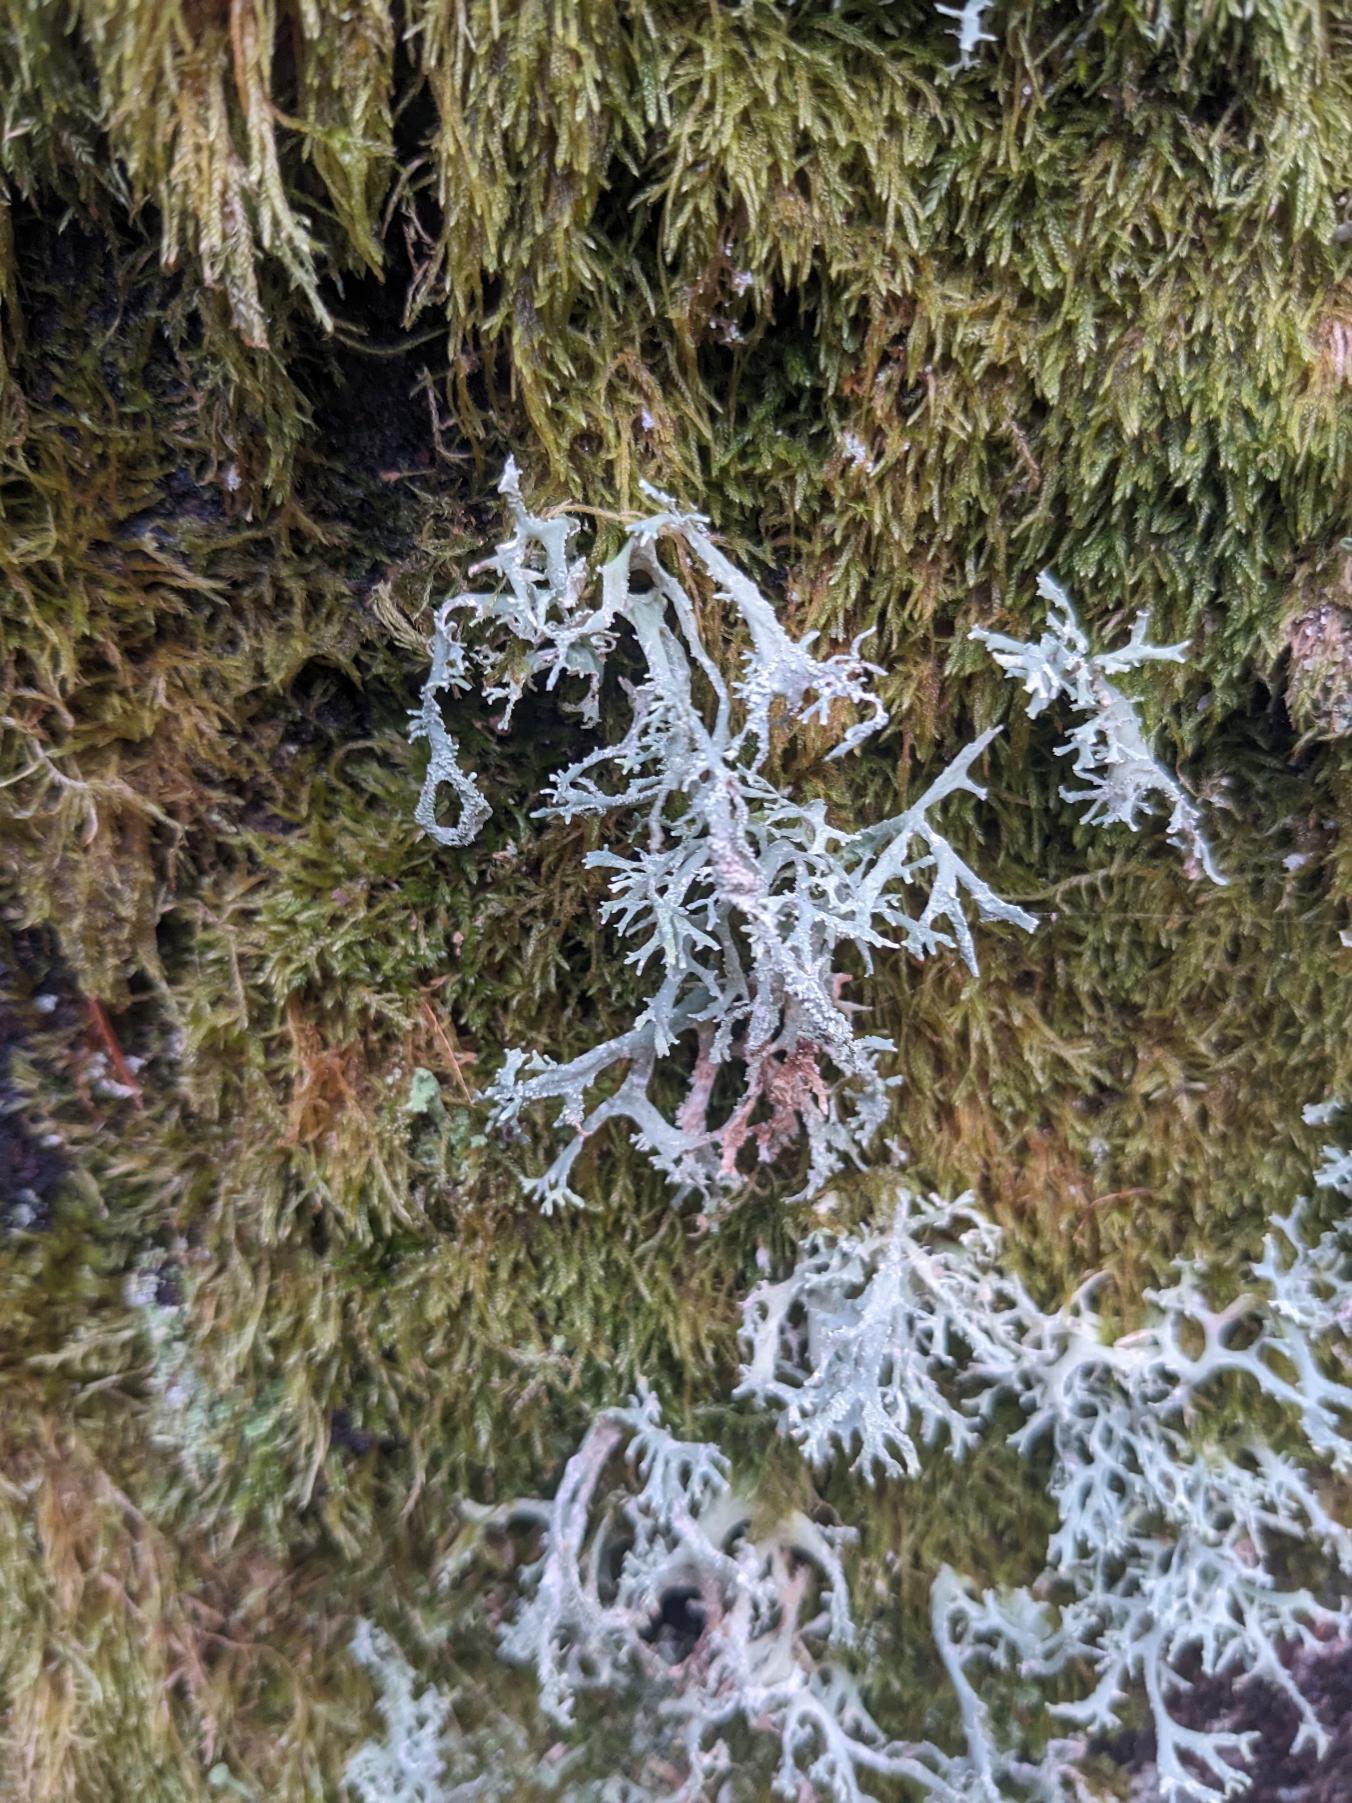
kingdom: Fungi
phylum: Ascomycota
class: Lecanoromycetes
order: Lecanorales
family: Parmeliaceae
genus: Evernia
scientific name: Evernia prunastri
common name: Almindelig slåenlav
